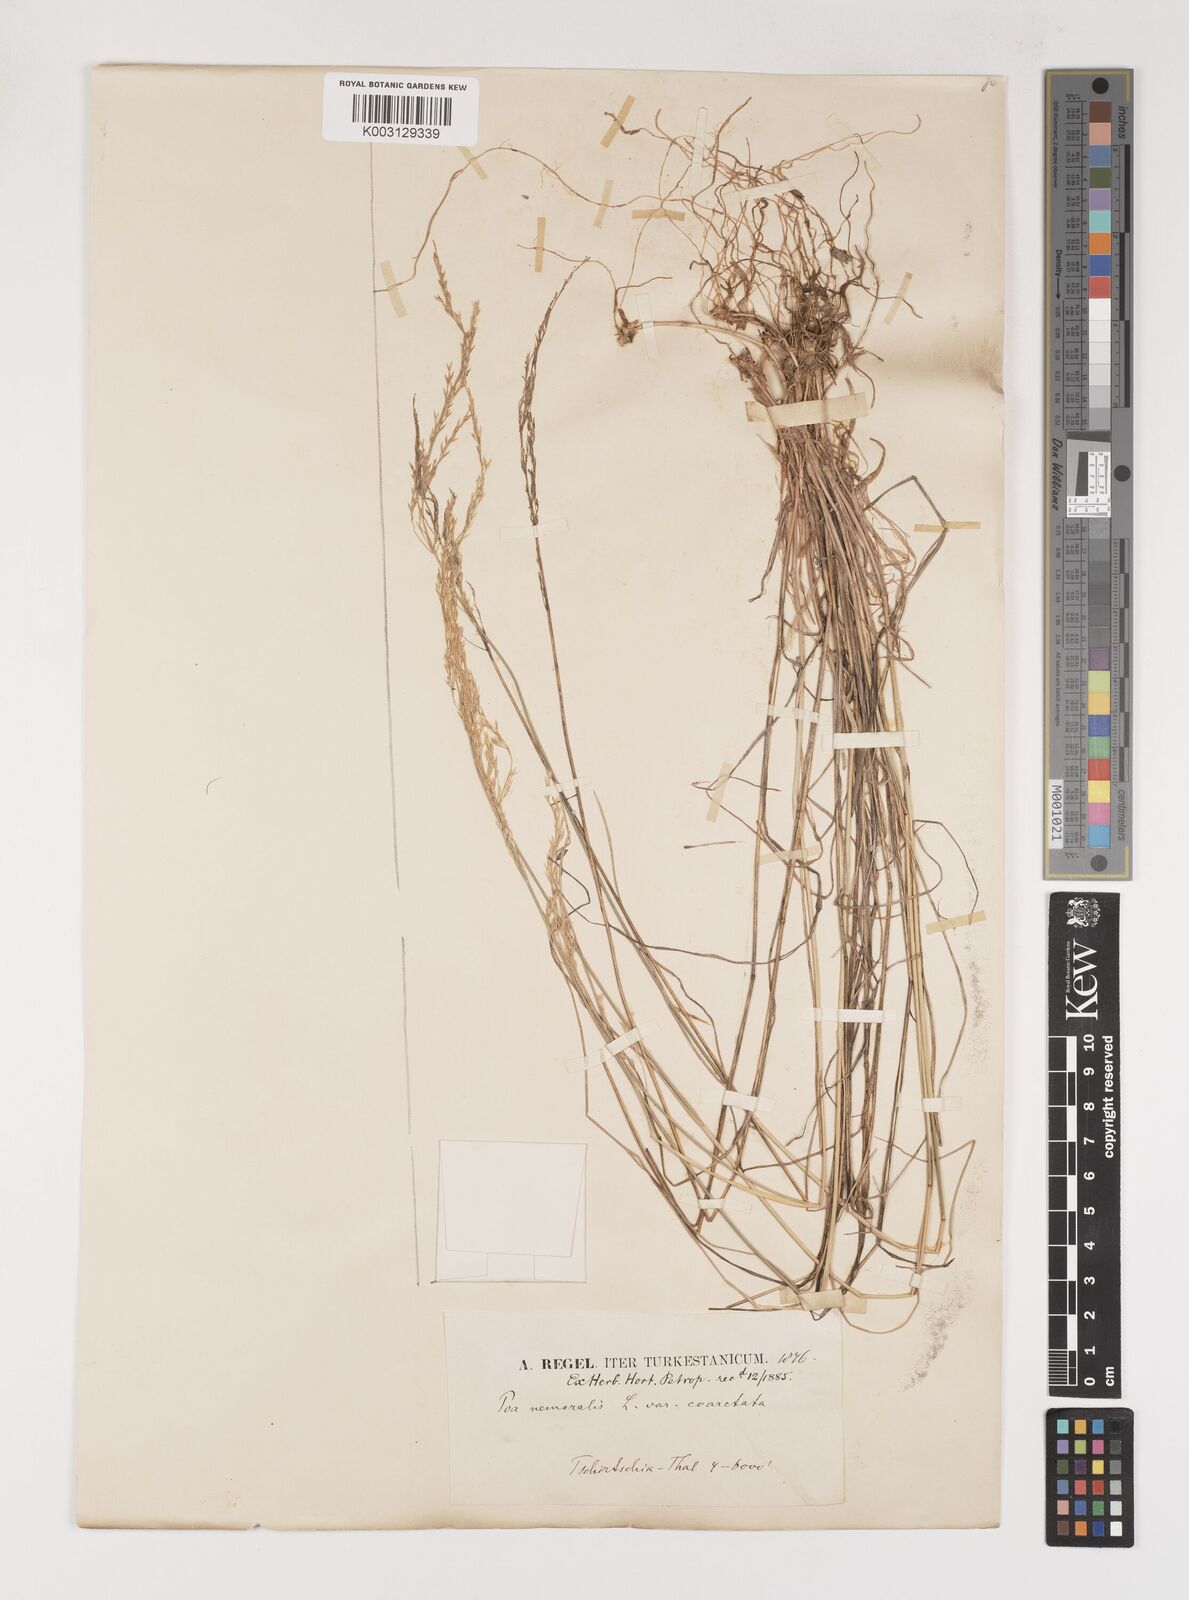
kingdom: Plantae
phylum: Tracheophyta
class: Liliopsida
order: Poales
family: Poaceae
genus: Poa
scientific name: Poa nemoralis
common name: Wood bluegrass
